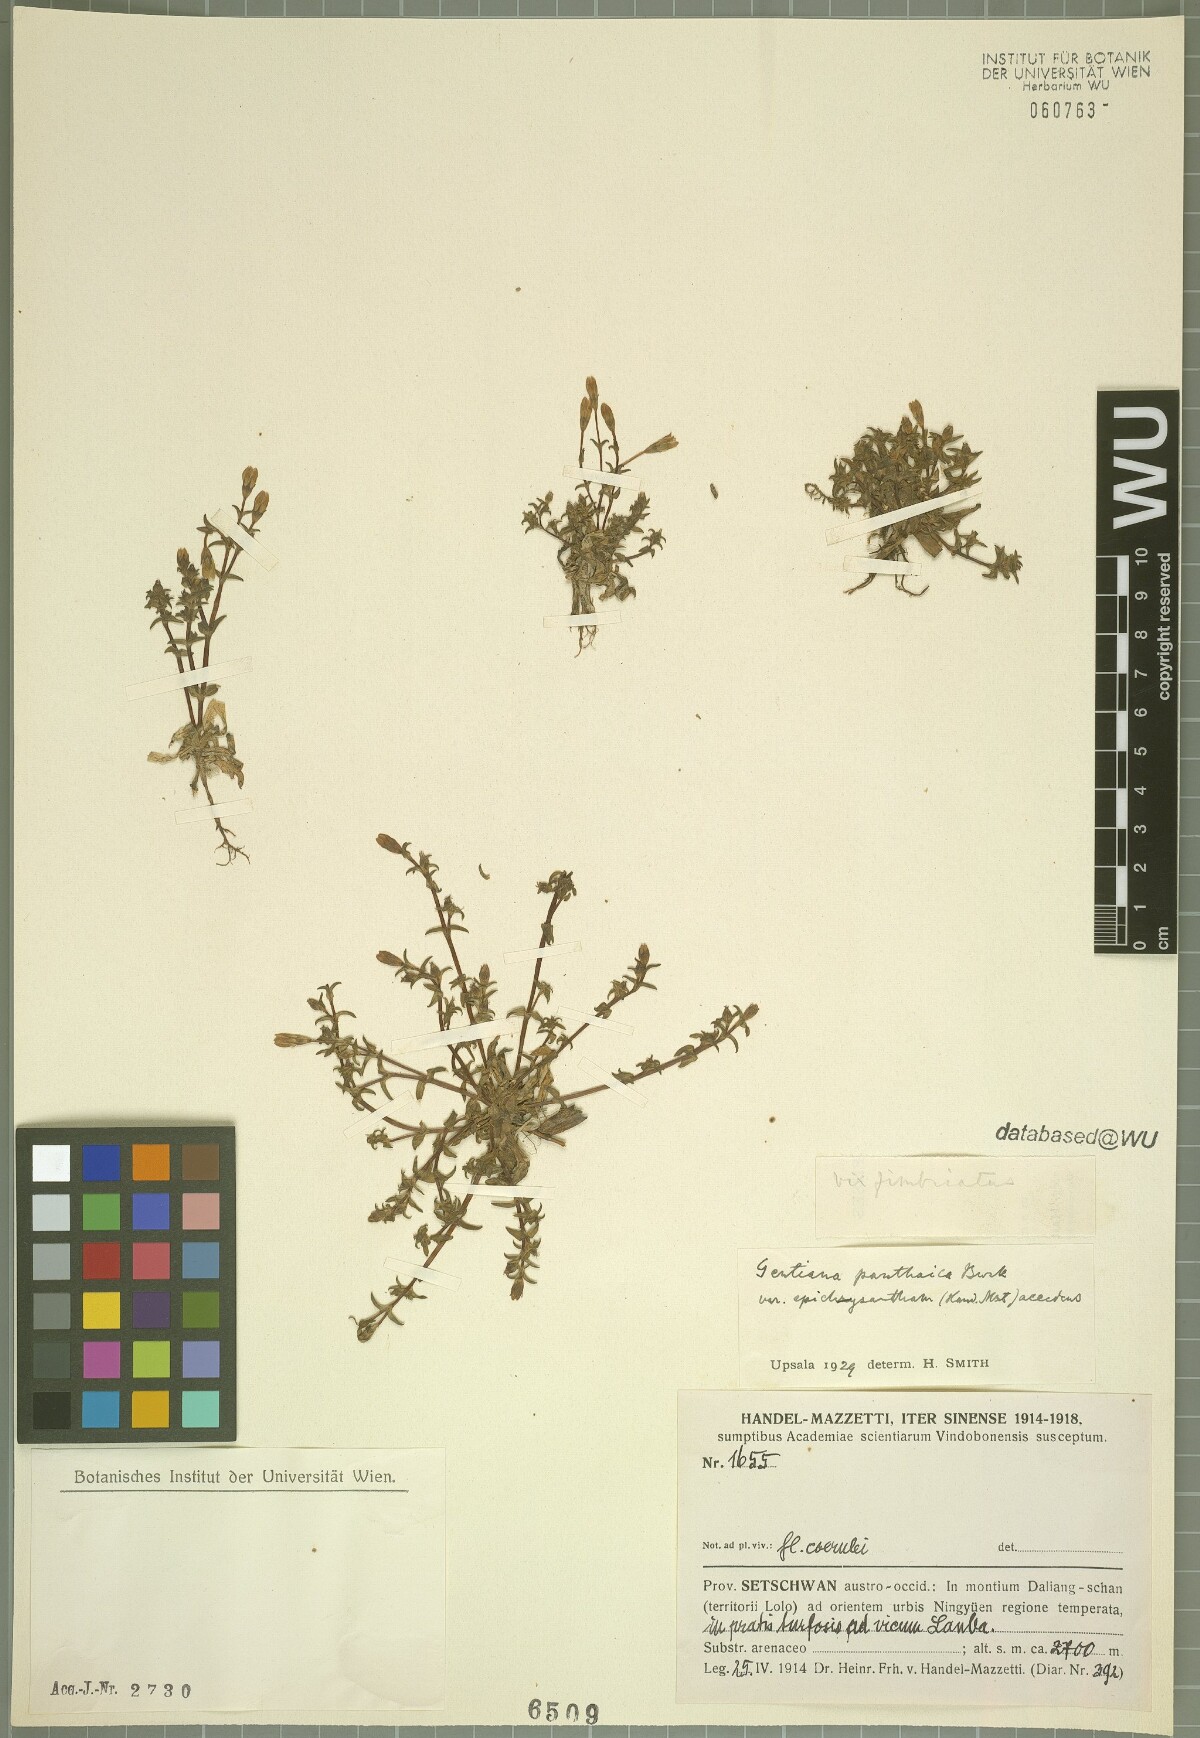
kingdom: Plantae
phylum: Tracheophyta
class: Magnoliopsida
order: Gentianales
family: Gentianaceae
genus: Gentiana
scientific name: Gentiana panthaica
